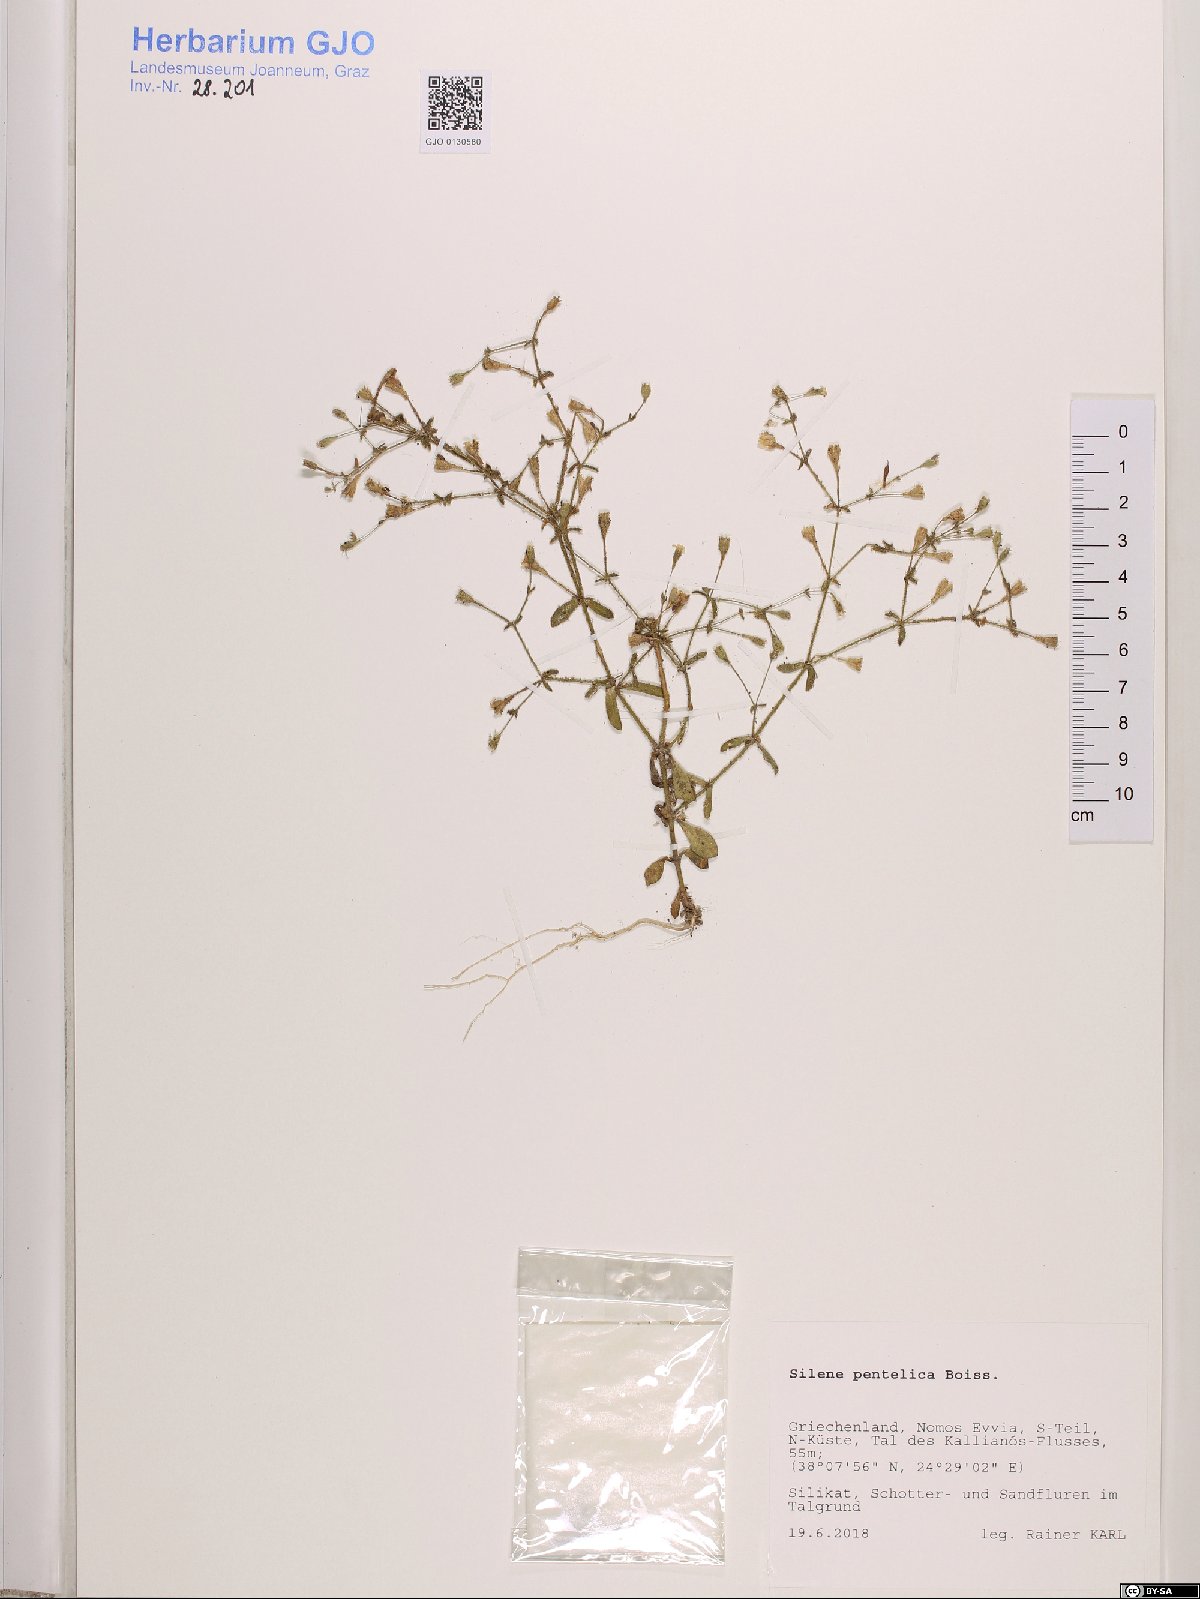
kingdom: Plantae
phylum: Tracheophyta
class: Magnoliopsida
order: Caryophyllales
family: Caryophyllaceae
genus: Silene
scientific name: Silene pentelica
